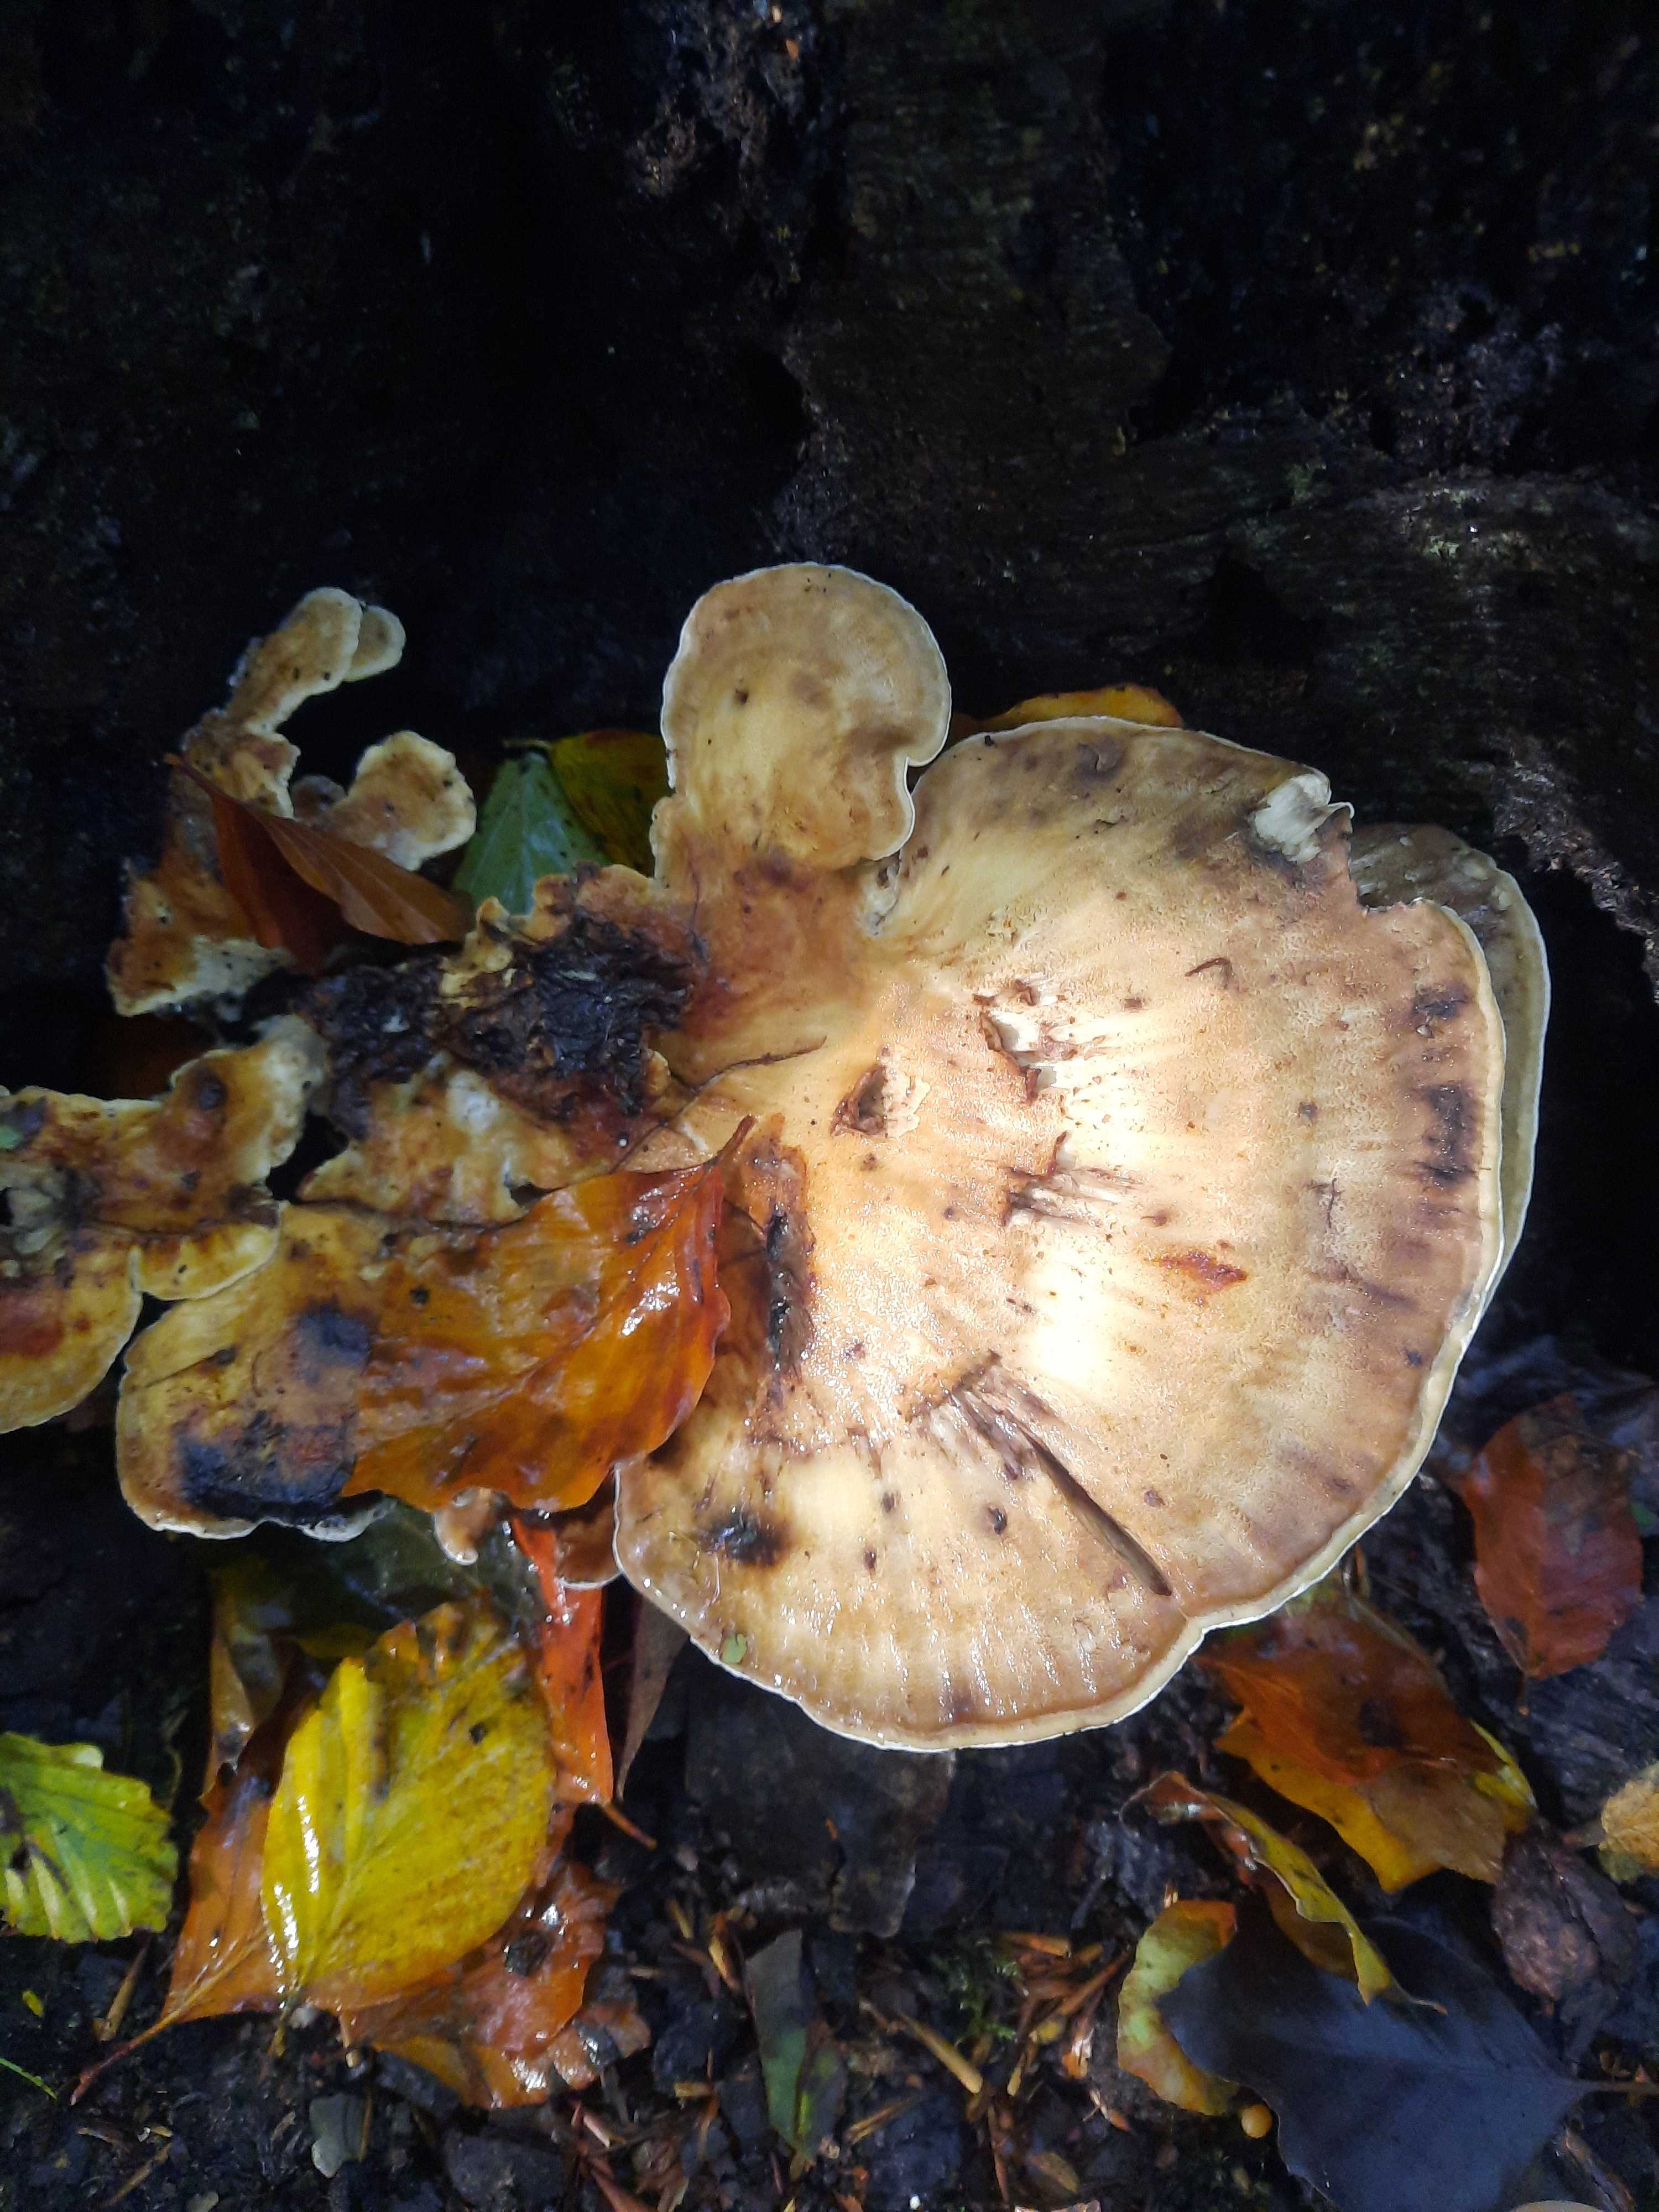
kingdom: Fungi
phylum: Basidiomycota
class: Agaricomycetes
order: Polyporales
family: Meripilaceae
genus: Meripilus
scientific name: Meripilus giganteus
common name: kæmpeporesvamp
